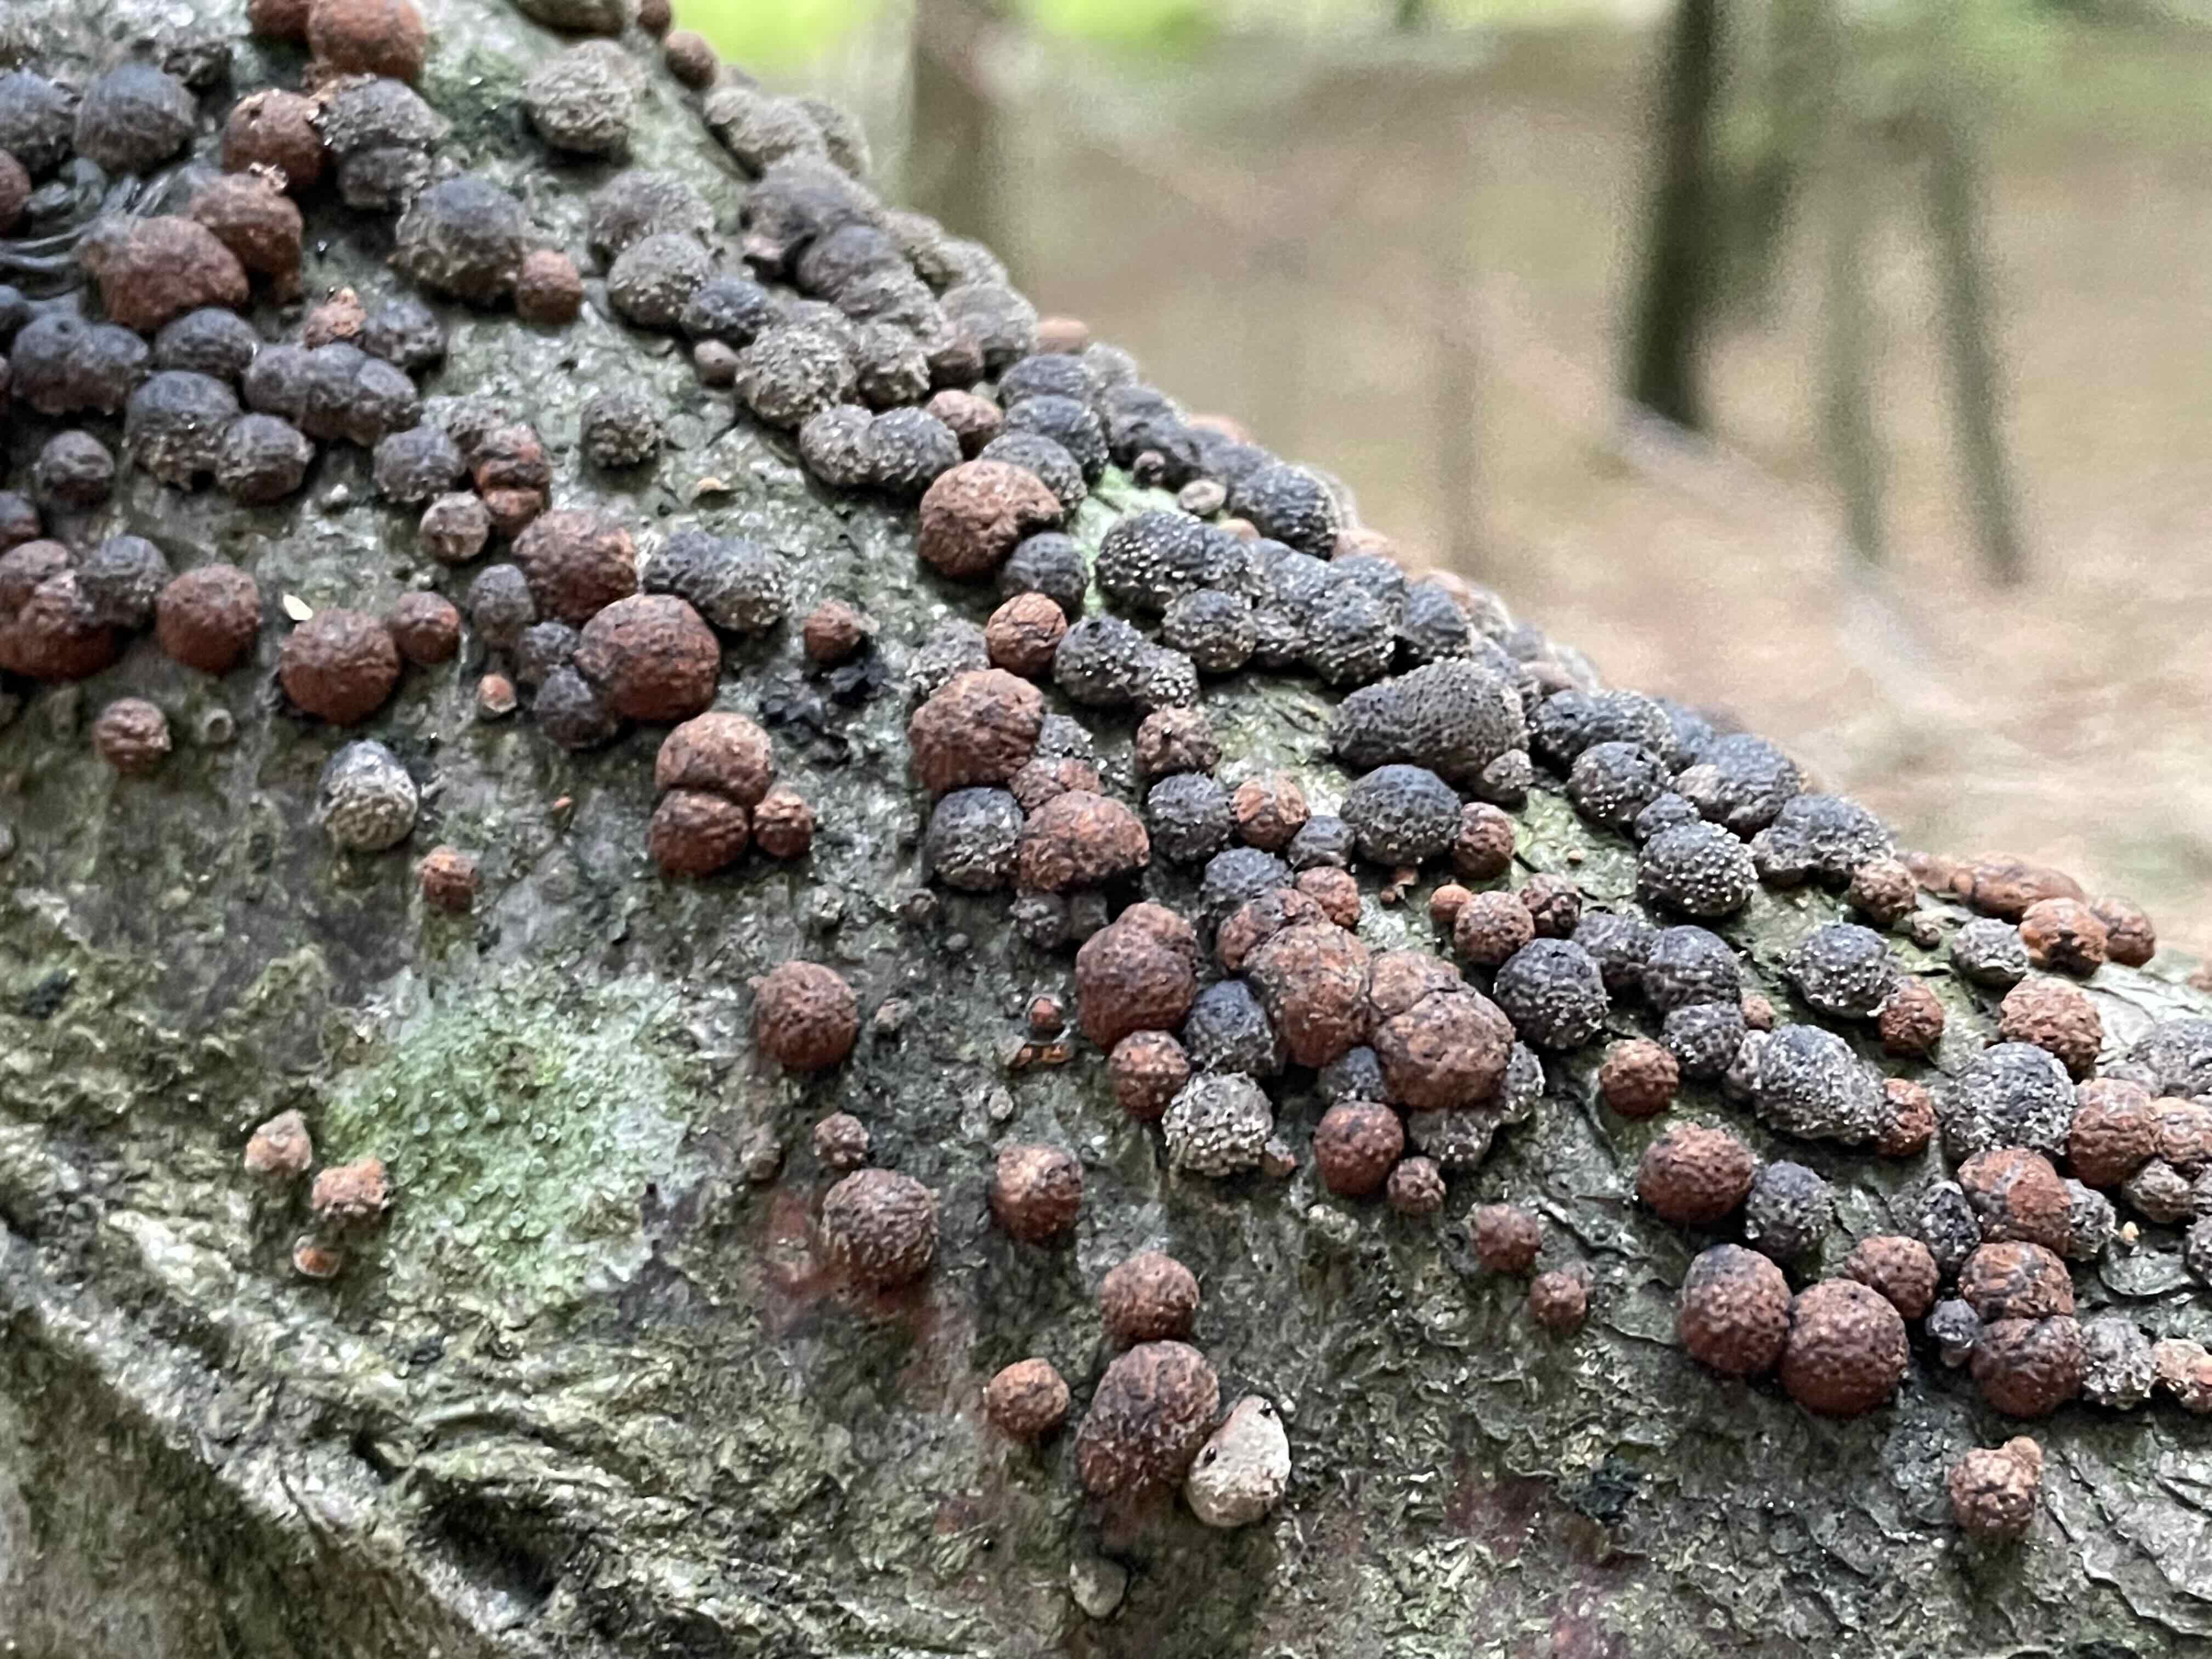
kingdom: Fungi
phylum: Ascomycota
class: Sordariomycetes
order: Xylariales
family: Hypoxylaceae
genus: Hypoxylon
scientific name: Hypoxylon fragiforme
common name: kuljordbær
